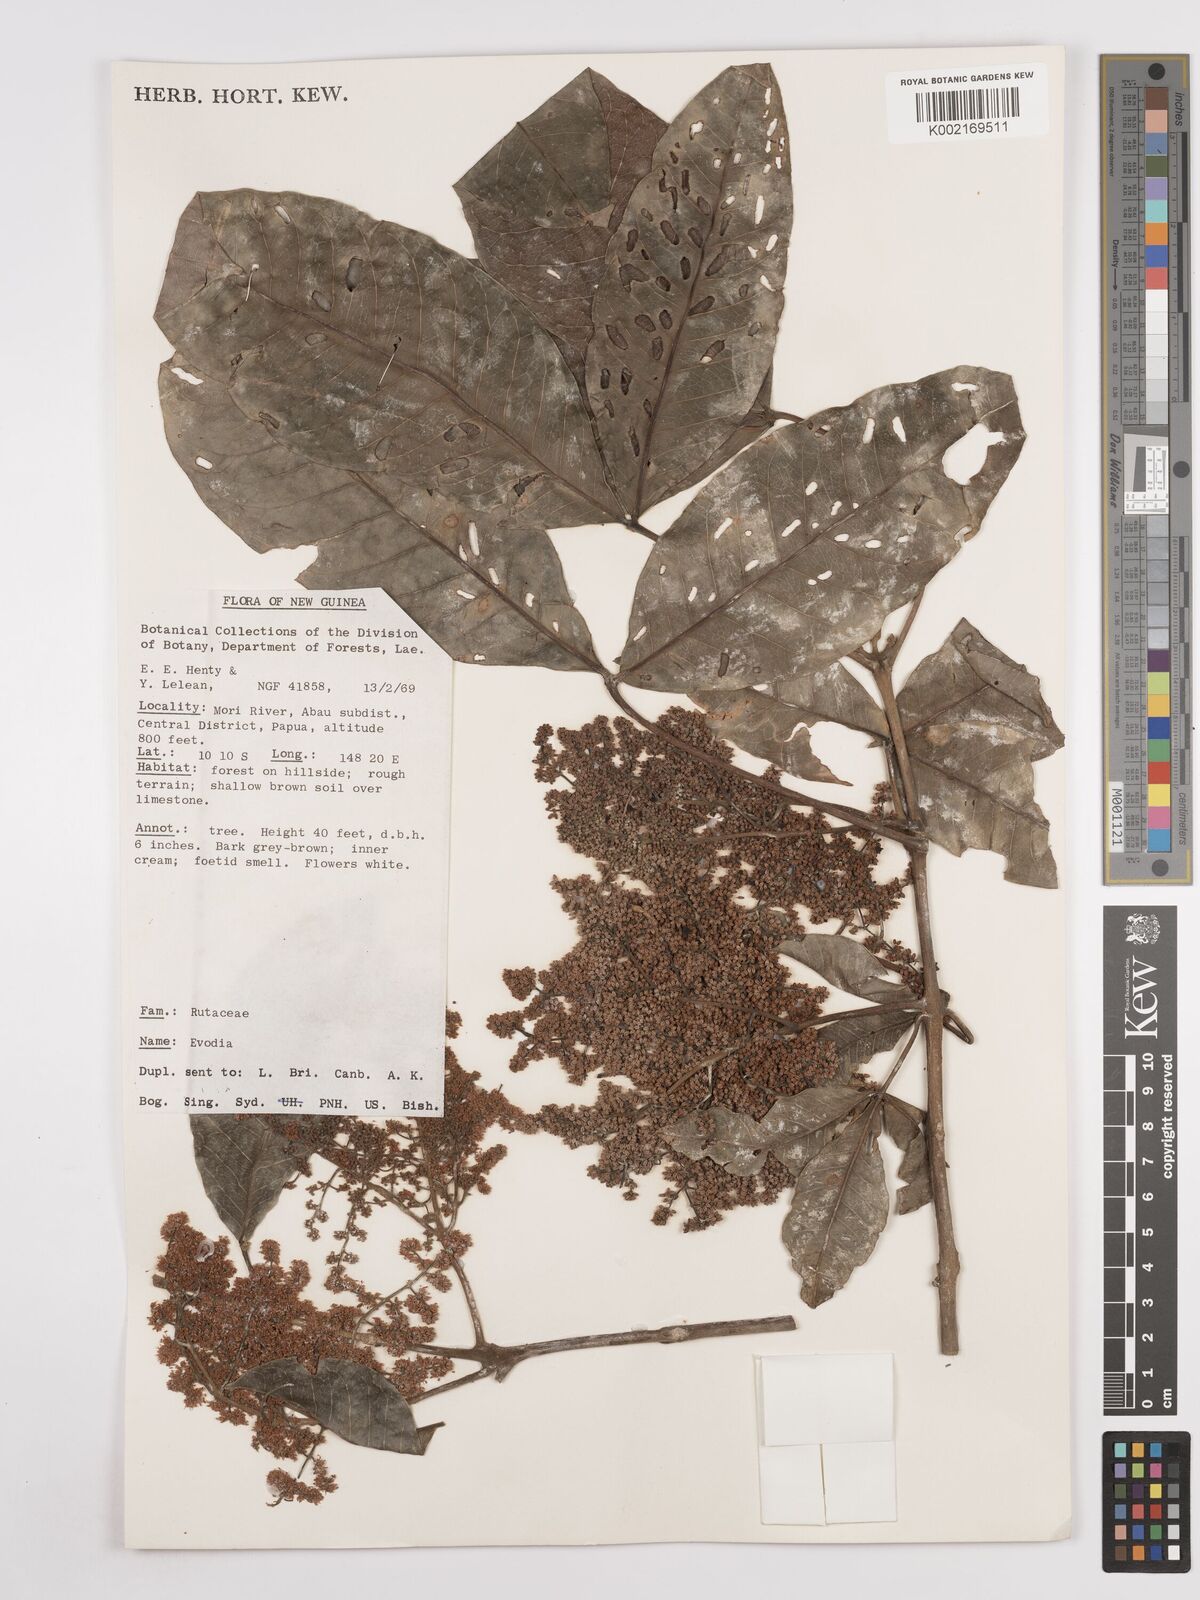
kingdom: Plantae
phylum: Tracheophyta
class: Magnoliopsida
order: Sapindales
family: Rutaceae
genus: Euodia
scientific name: Euodia
